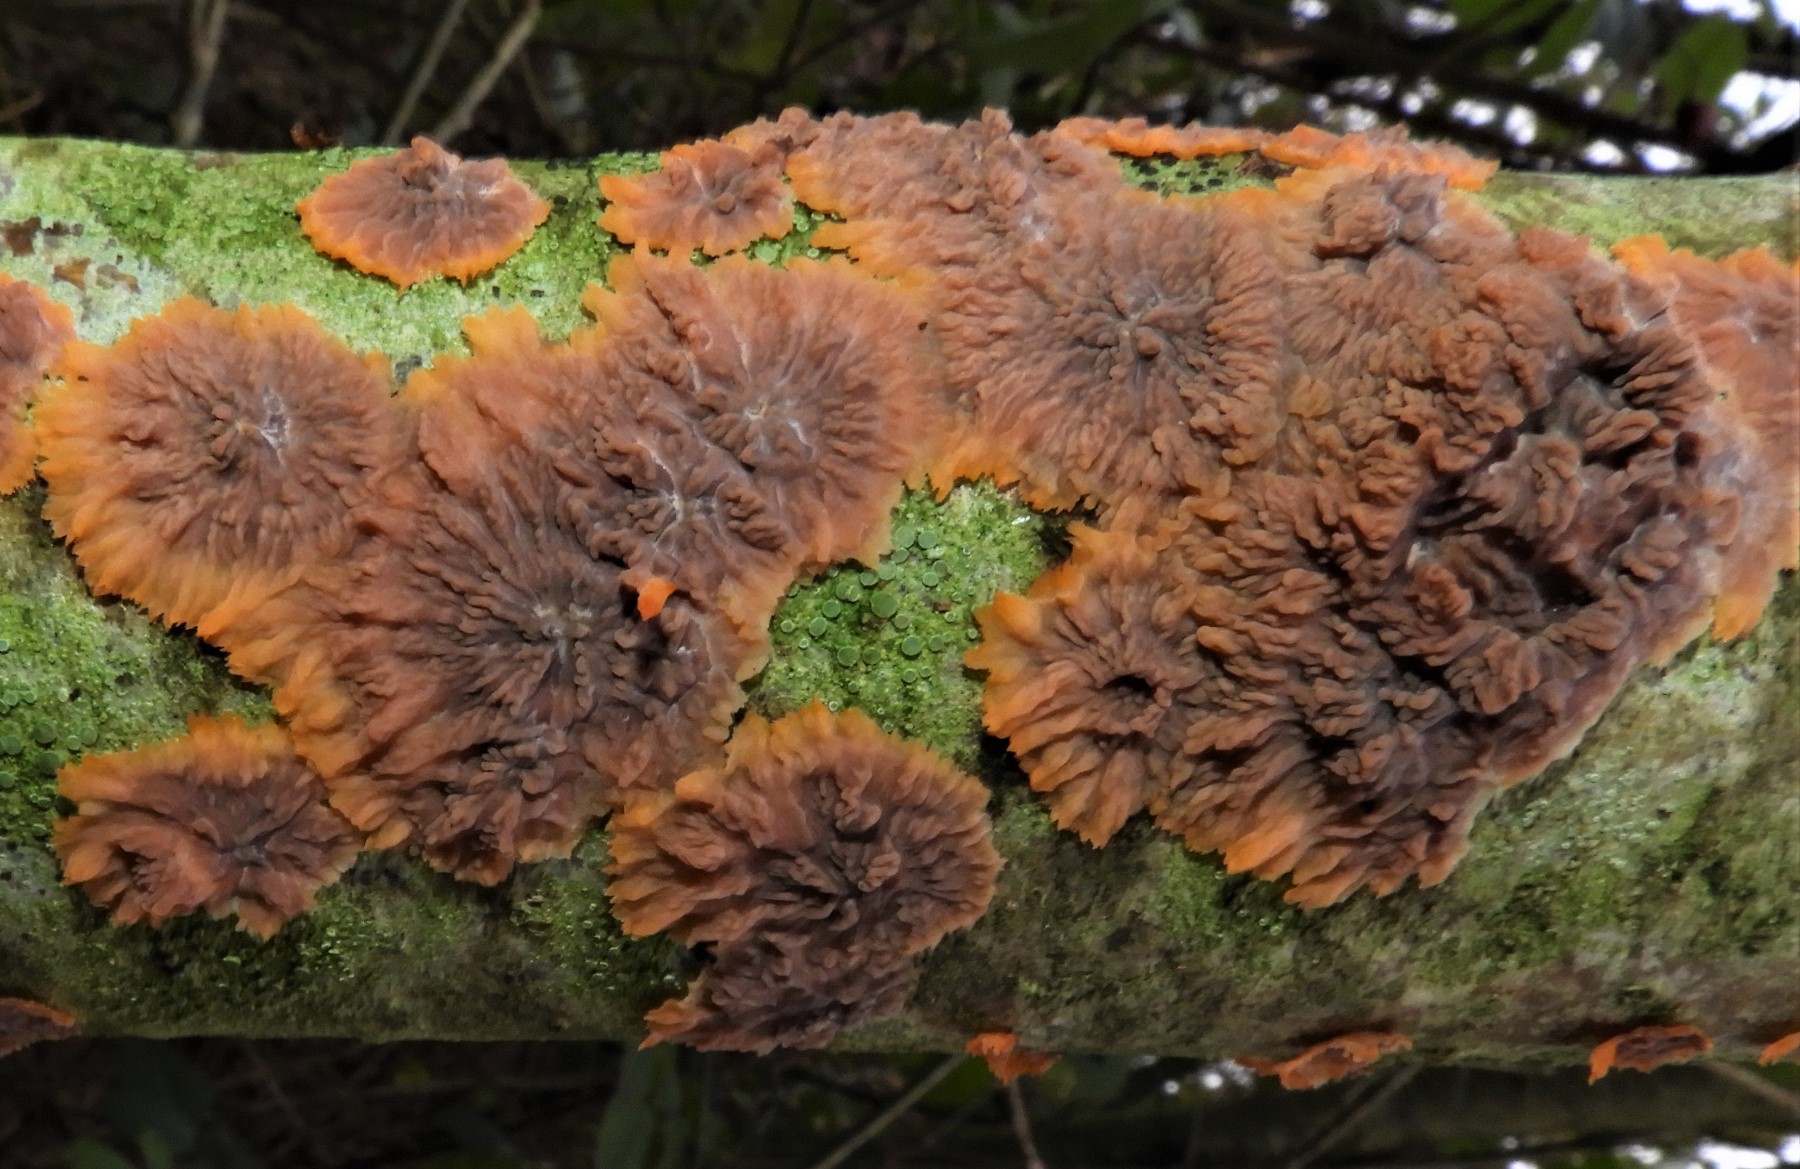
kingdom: Fungi
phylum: Basidiomycota
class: Agaricomycetes
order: Polyporales
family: Meruliaceae
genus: Phlebia
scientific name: Phlebia radiata
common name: stråle-åresvamp
